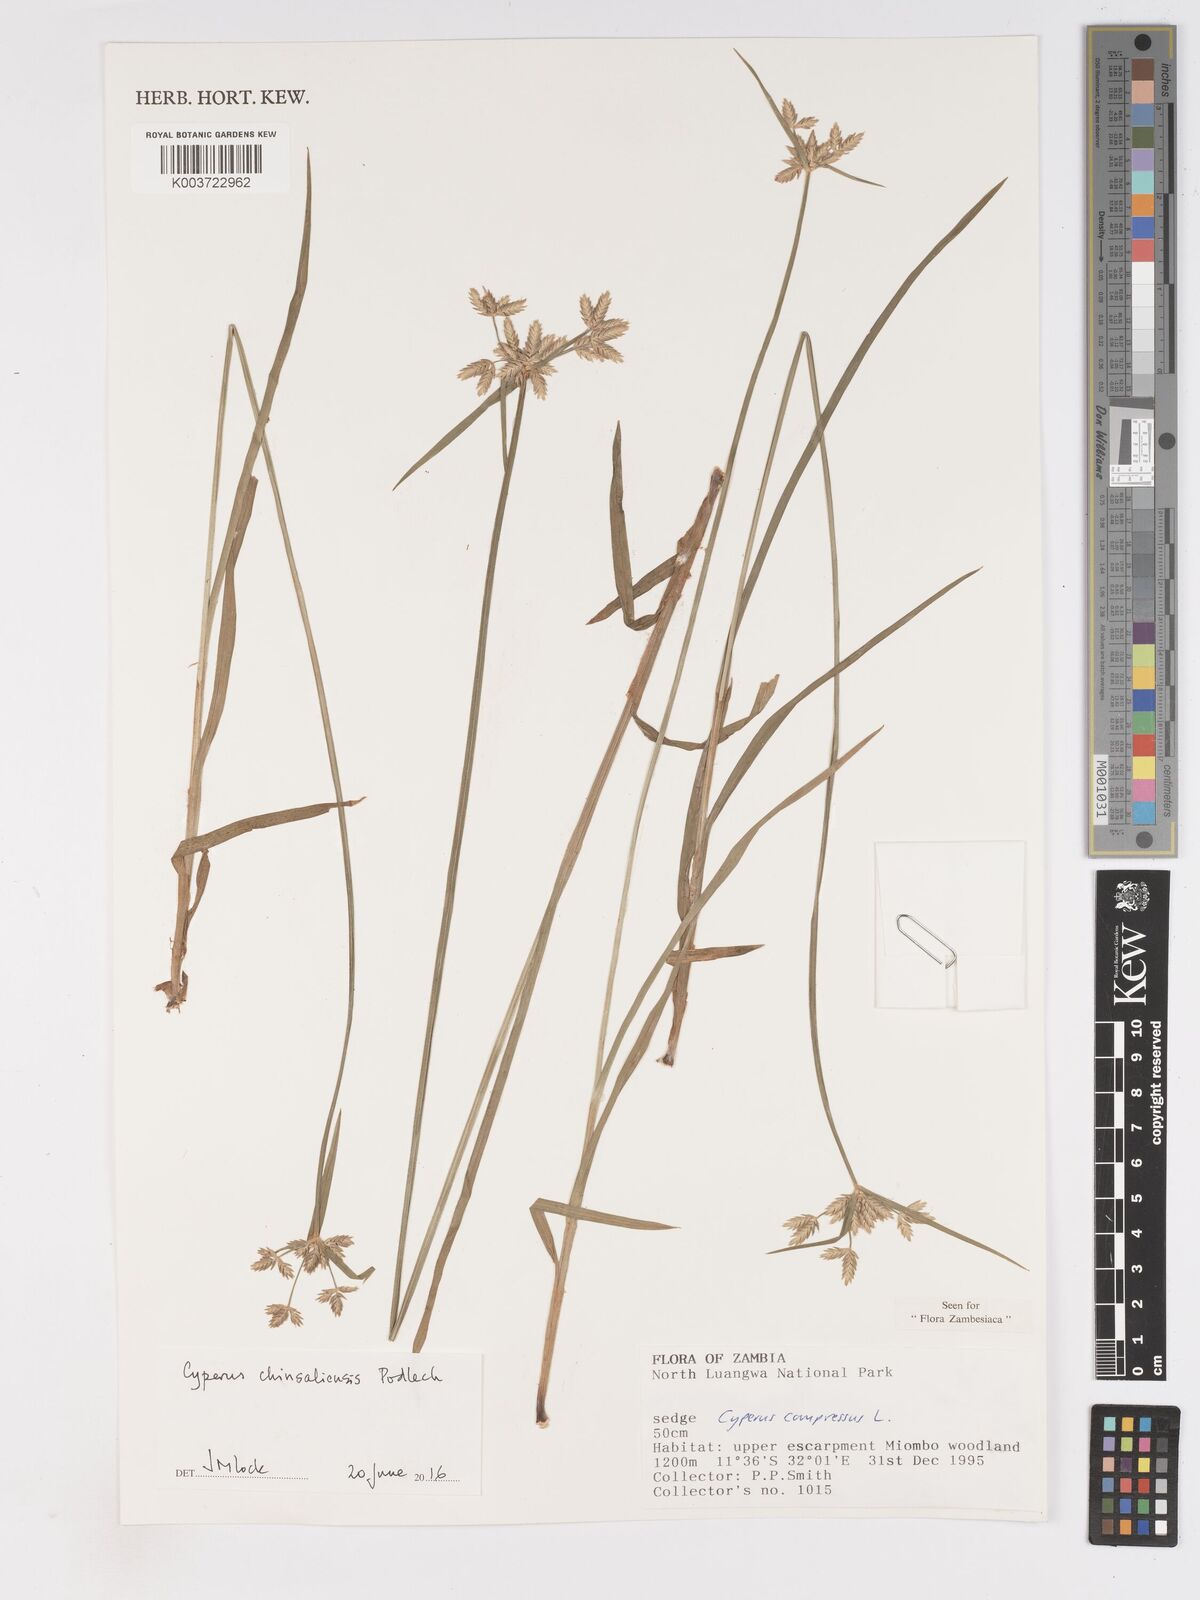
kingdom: Plantae
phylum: Tracheophyta
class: Liliopsida
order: Poales
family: Cyperaceae
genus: Cyperus
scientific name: Cyperus chinsalensis
